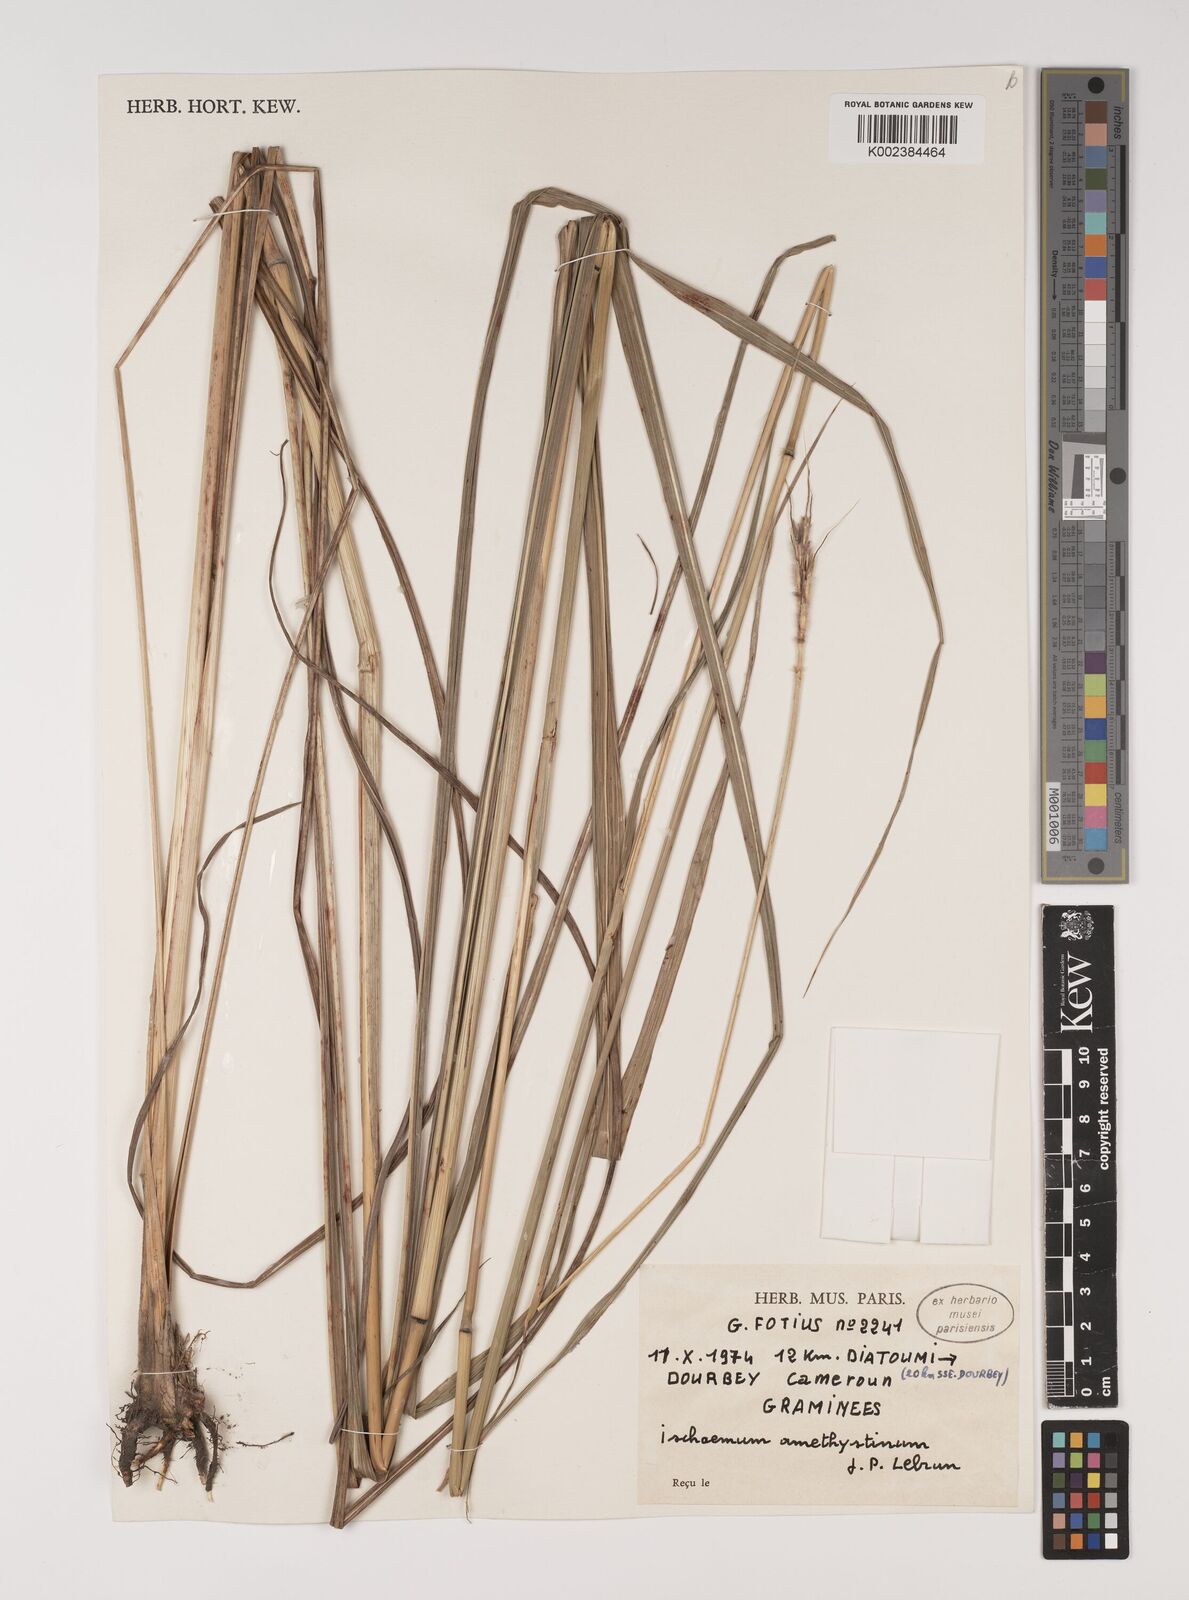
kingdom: Plantae
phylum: Tracheophyta
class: Liliopsida
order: Poales
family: Poaceae
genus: Ischaemum
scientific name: Ischaemum amethystinum
